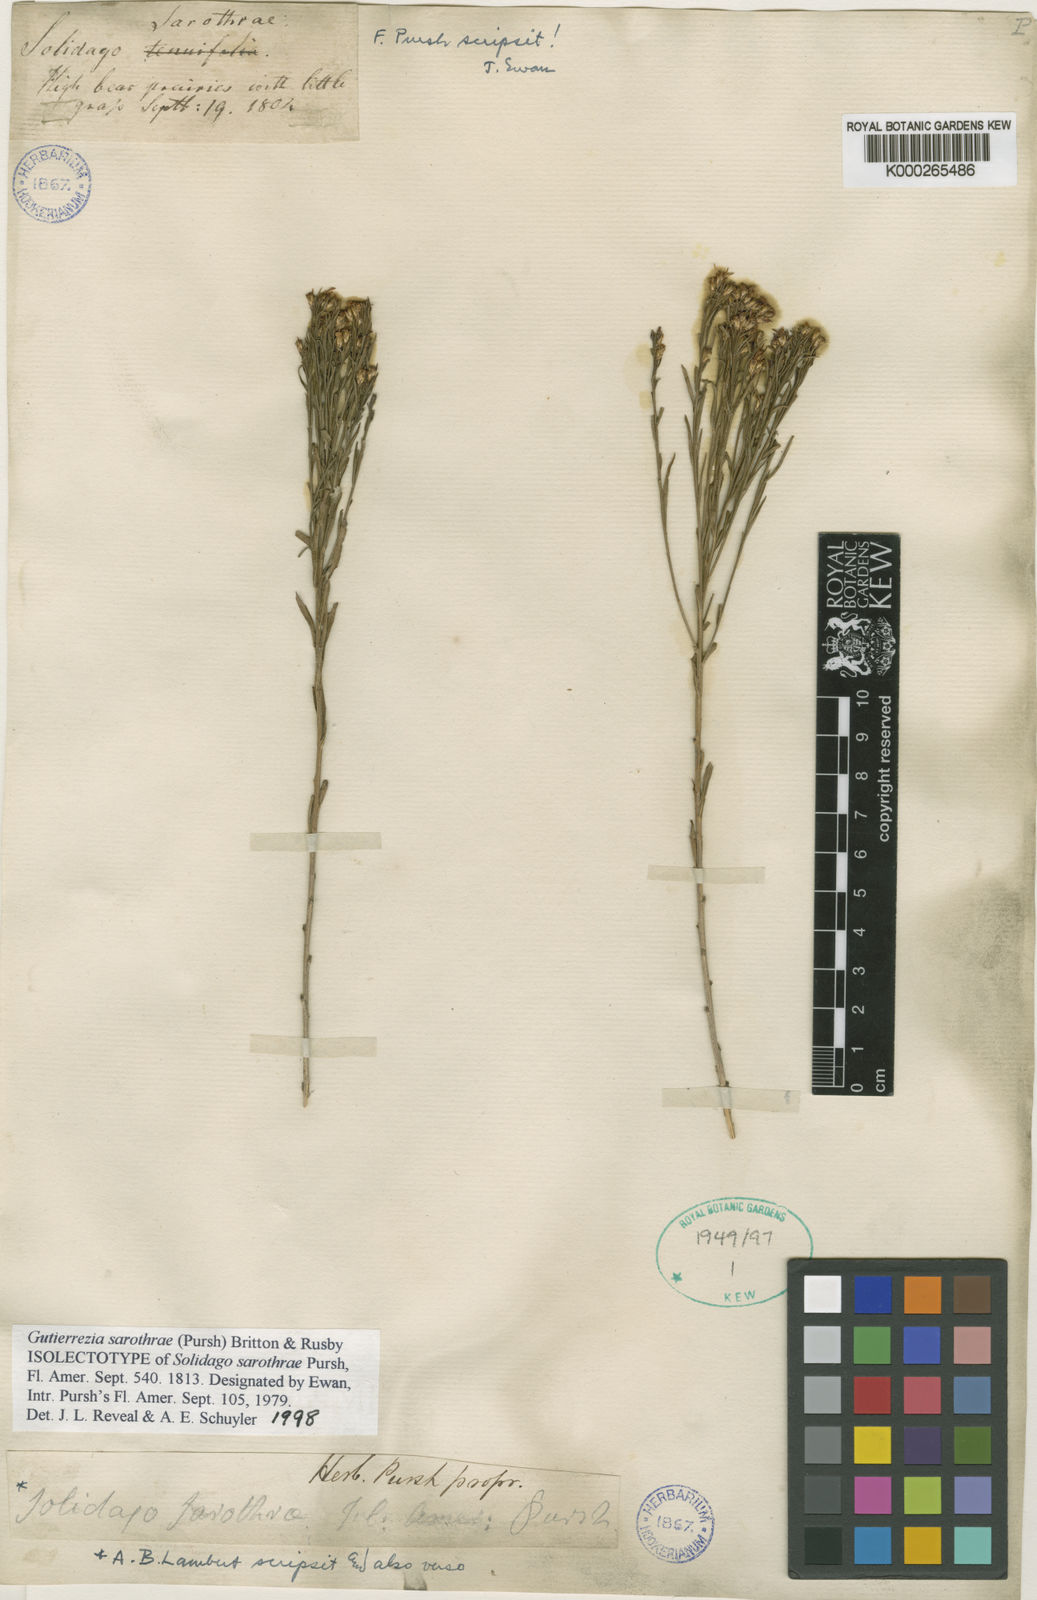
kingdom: Plantae
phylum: Tracheophyta
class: Magnoliopsida
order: Asterales
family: Asteraceae
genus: Gutierrezia
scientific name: Gutierrezia sarothrae
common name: Broom snakeweed
